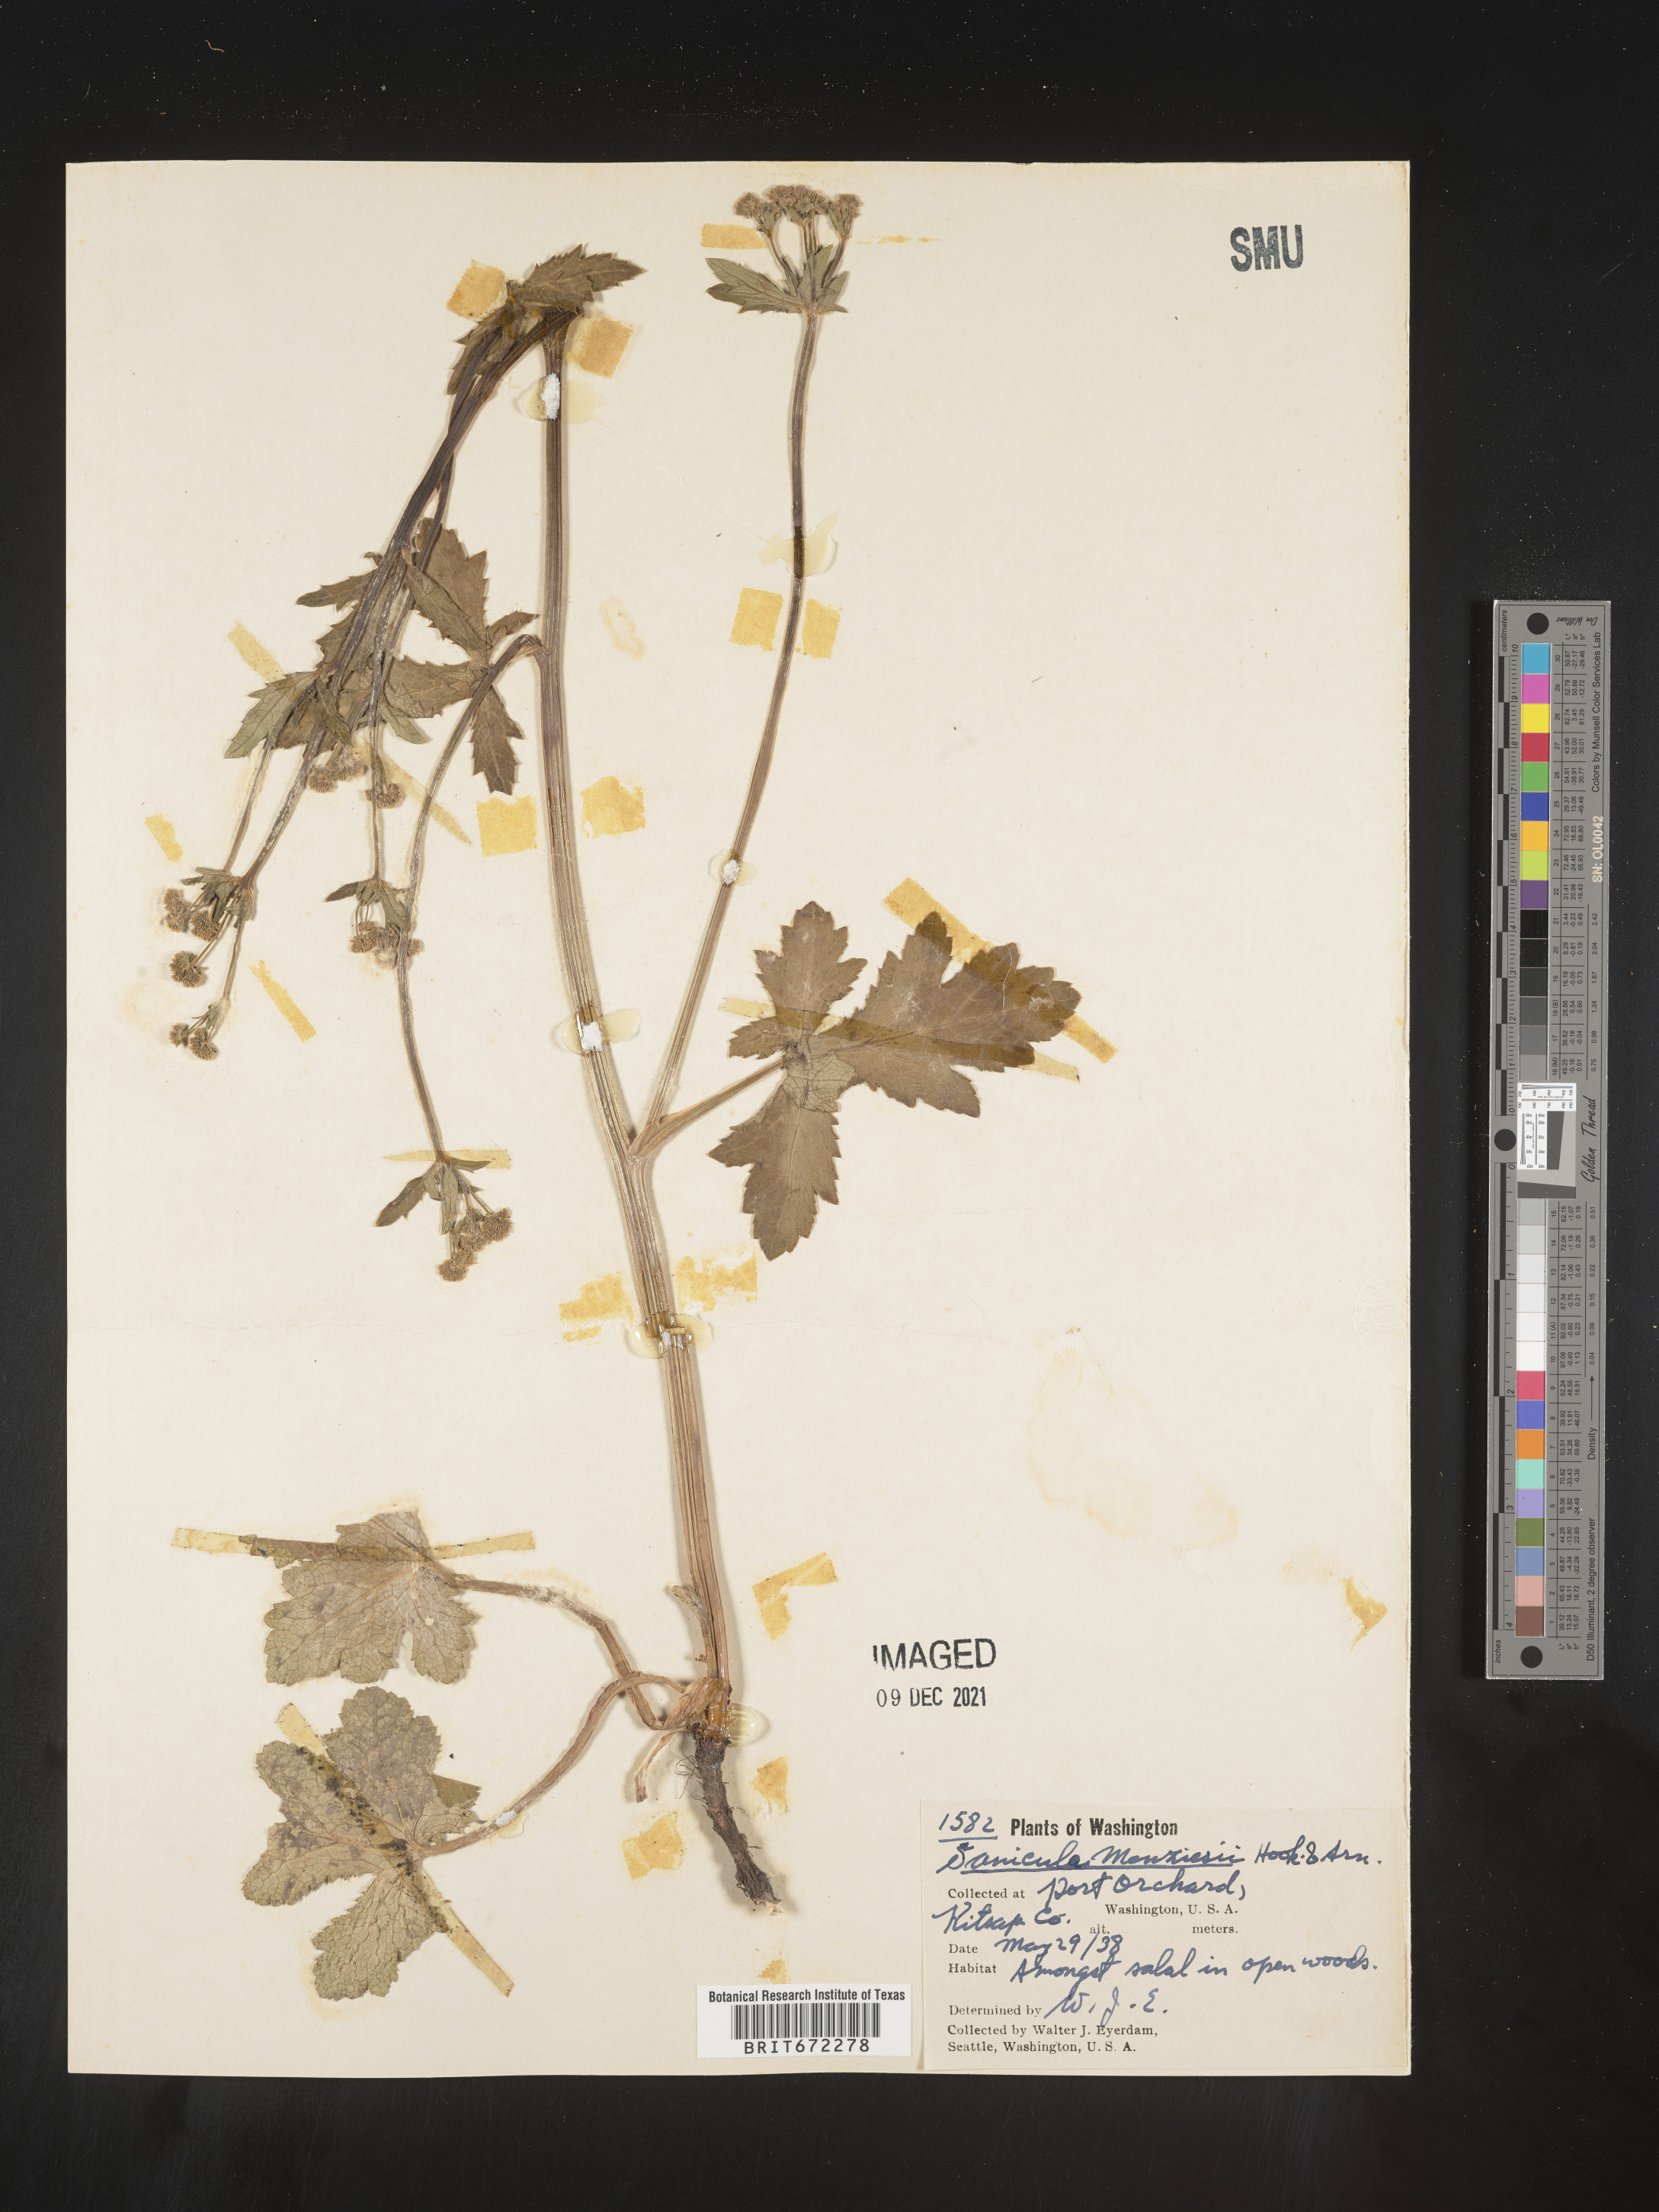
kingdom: Plantae
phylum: Tracheophyta
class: Magnoliopsida
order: Apiales
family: Apiaceae
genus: Sanicula
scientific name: Sanicula
